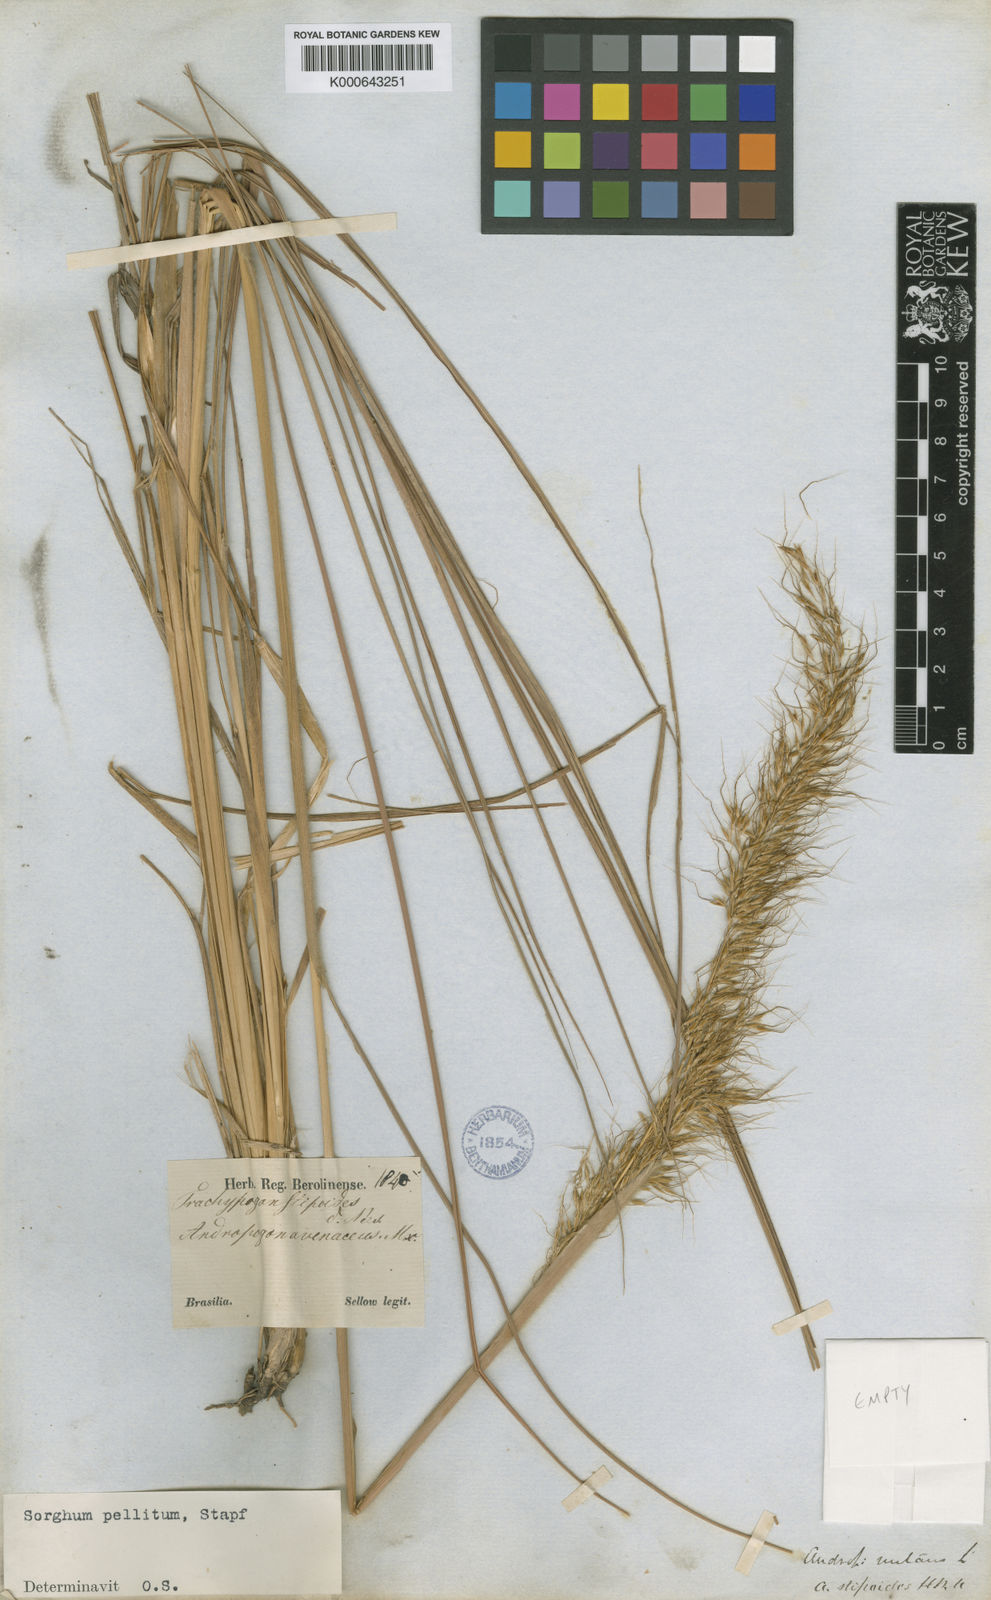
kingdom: Plantae
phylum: Tracheophyta
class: Liliopsida
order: Poales
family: Poaceae
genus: Axonopus
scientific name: Axonopus siccus
